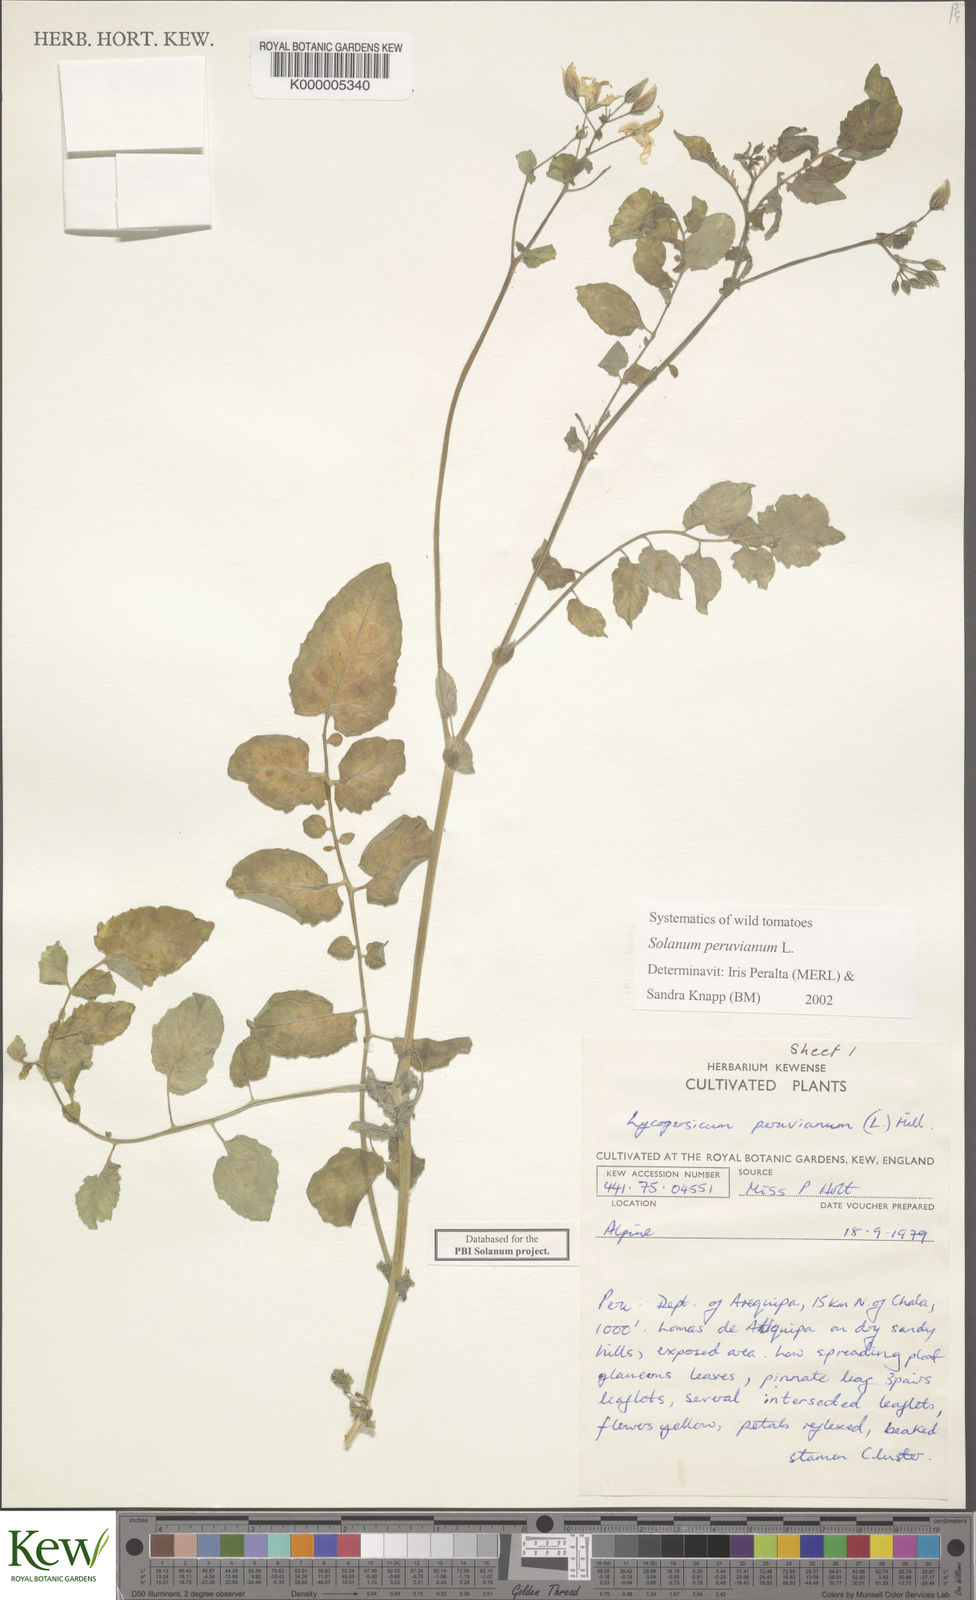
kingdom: Plantae
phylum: Tracheophyta
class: Magnoliopsida
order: Solanales
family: Solanaceae
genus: Solanum
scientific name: Solanum peruvianum
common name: Peruvian nightshade
